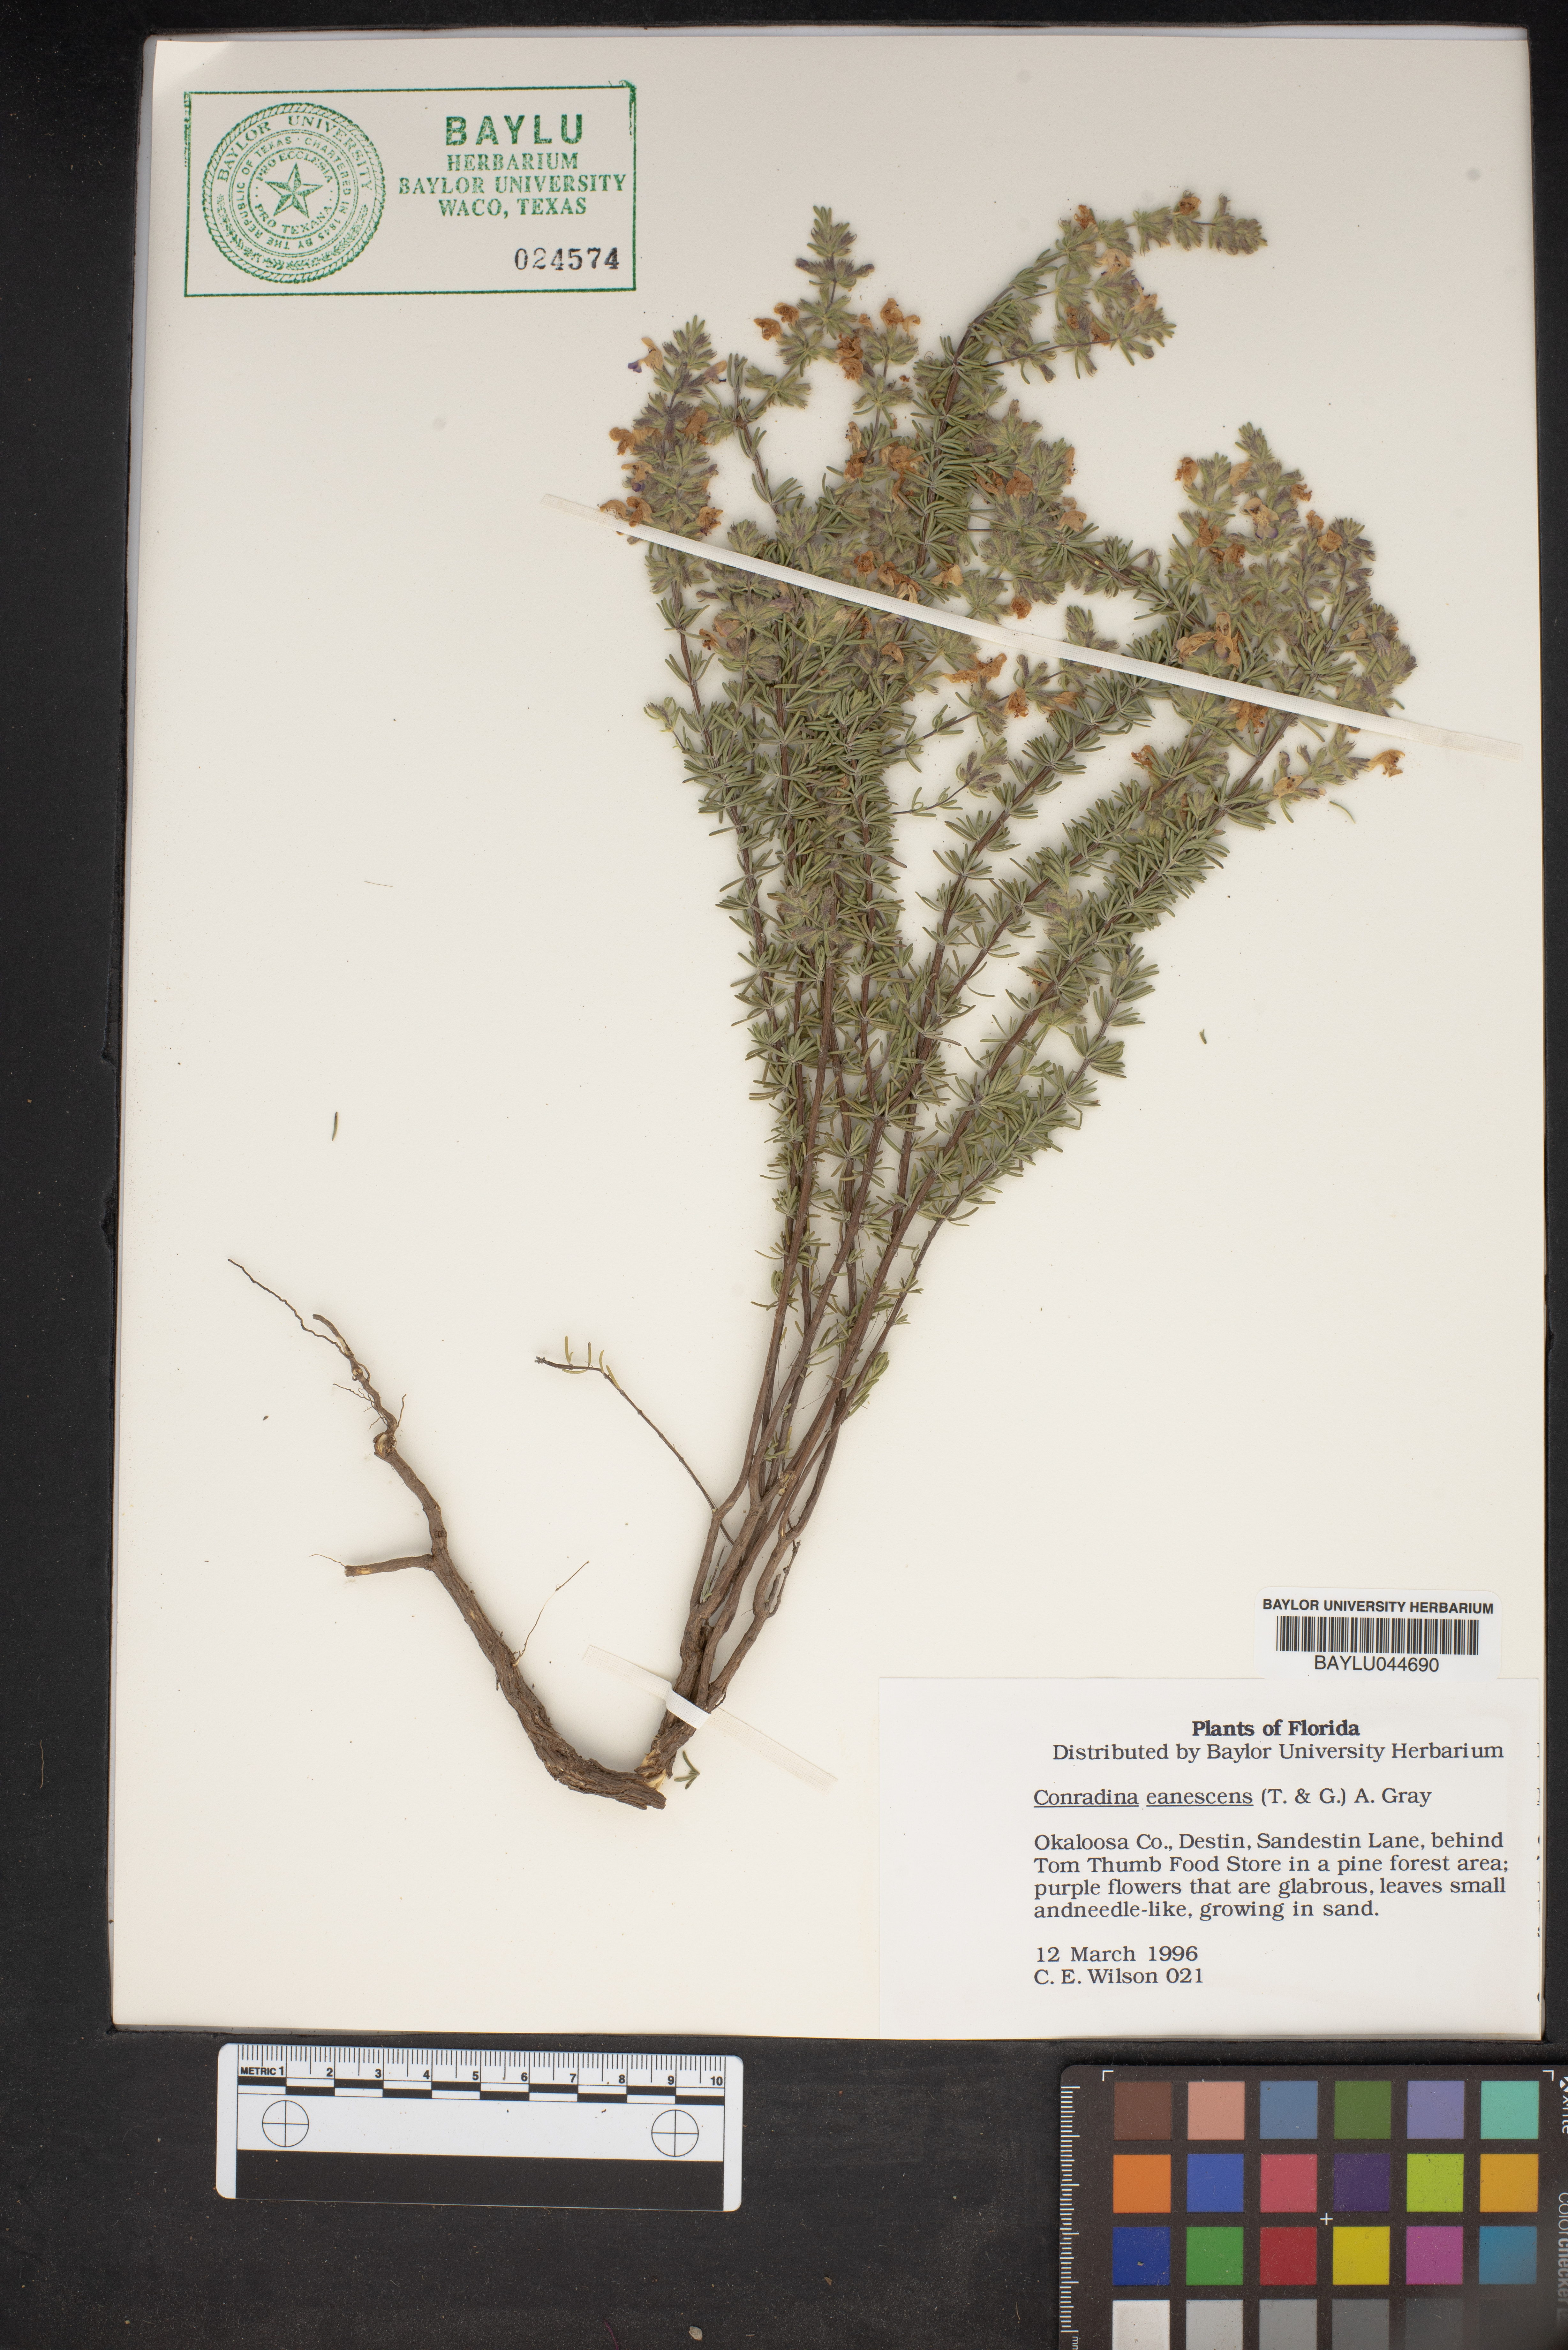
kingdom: Plantae
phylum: Tracheophyta
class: Magnoliopsida
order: Lamiales
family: Lamiaceae
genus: Conradina
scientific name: Conradina canescens
